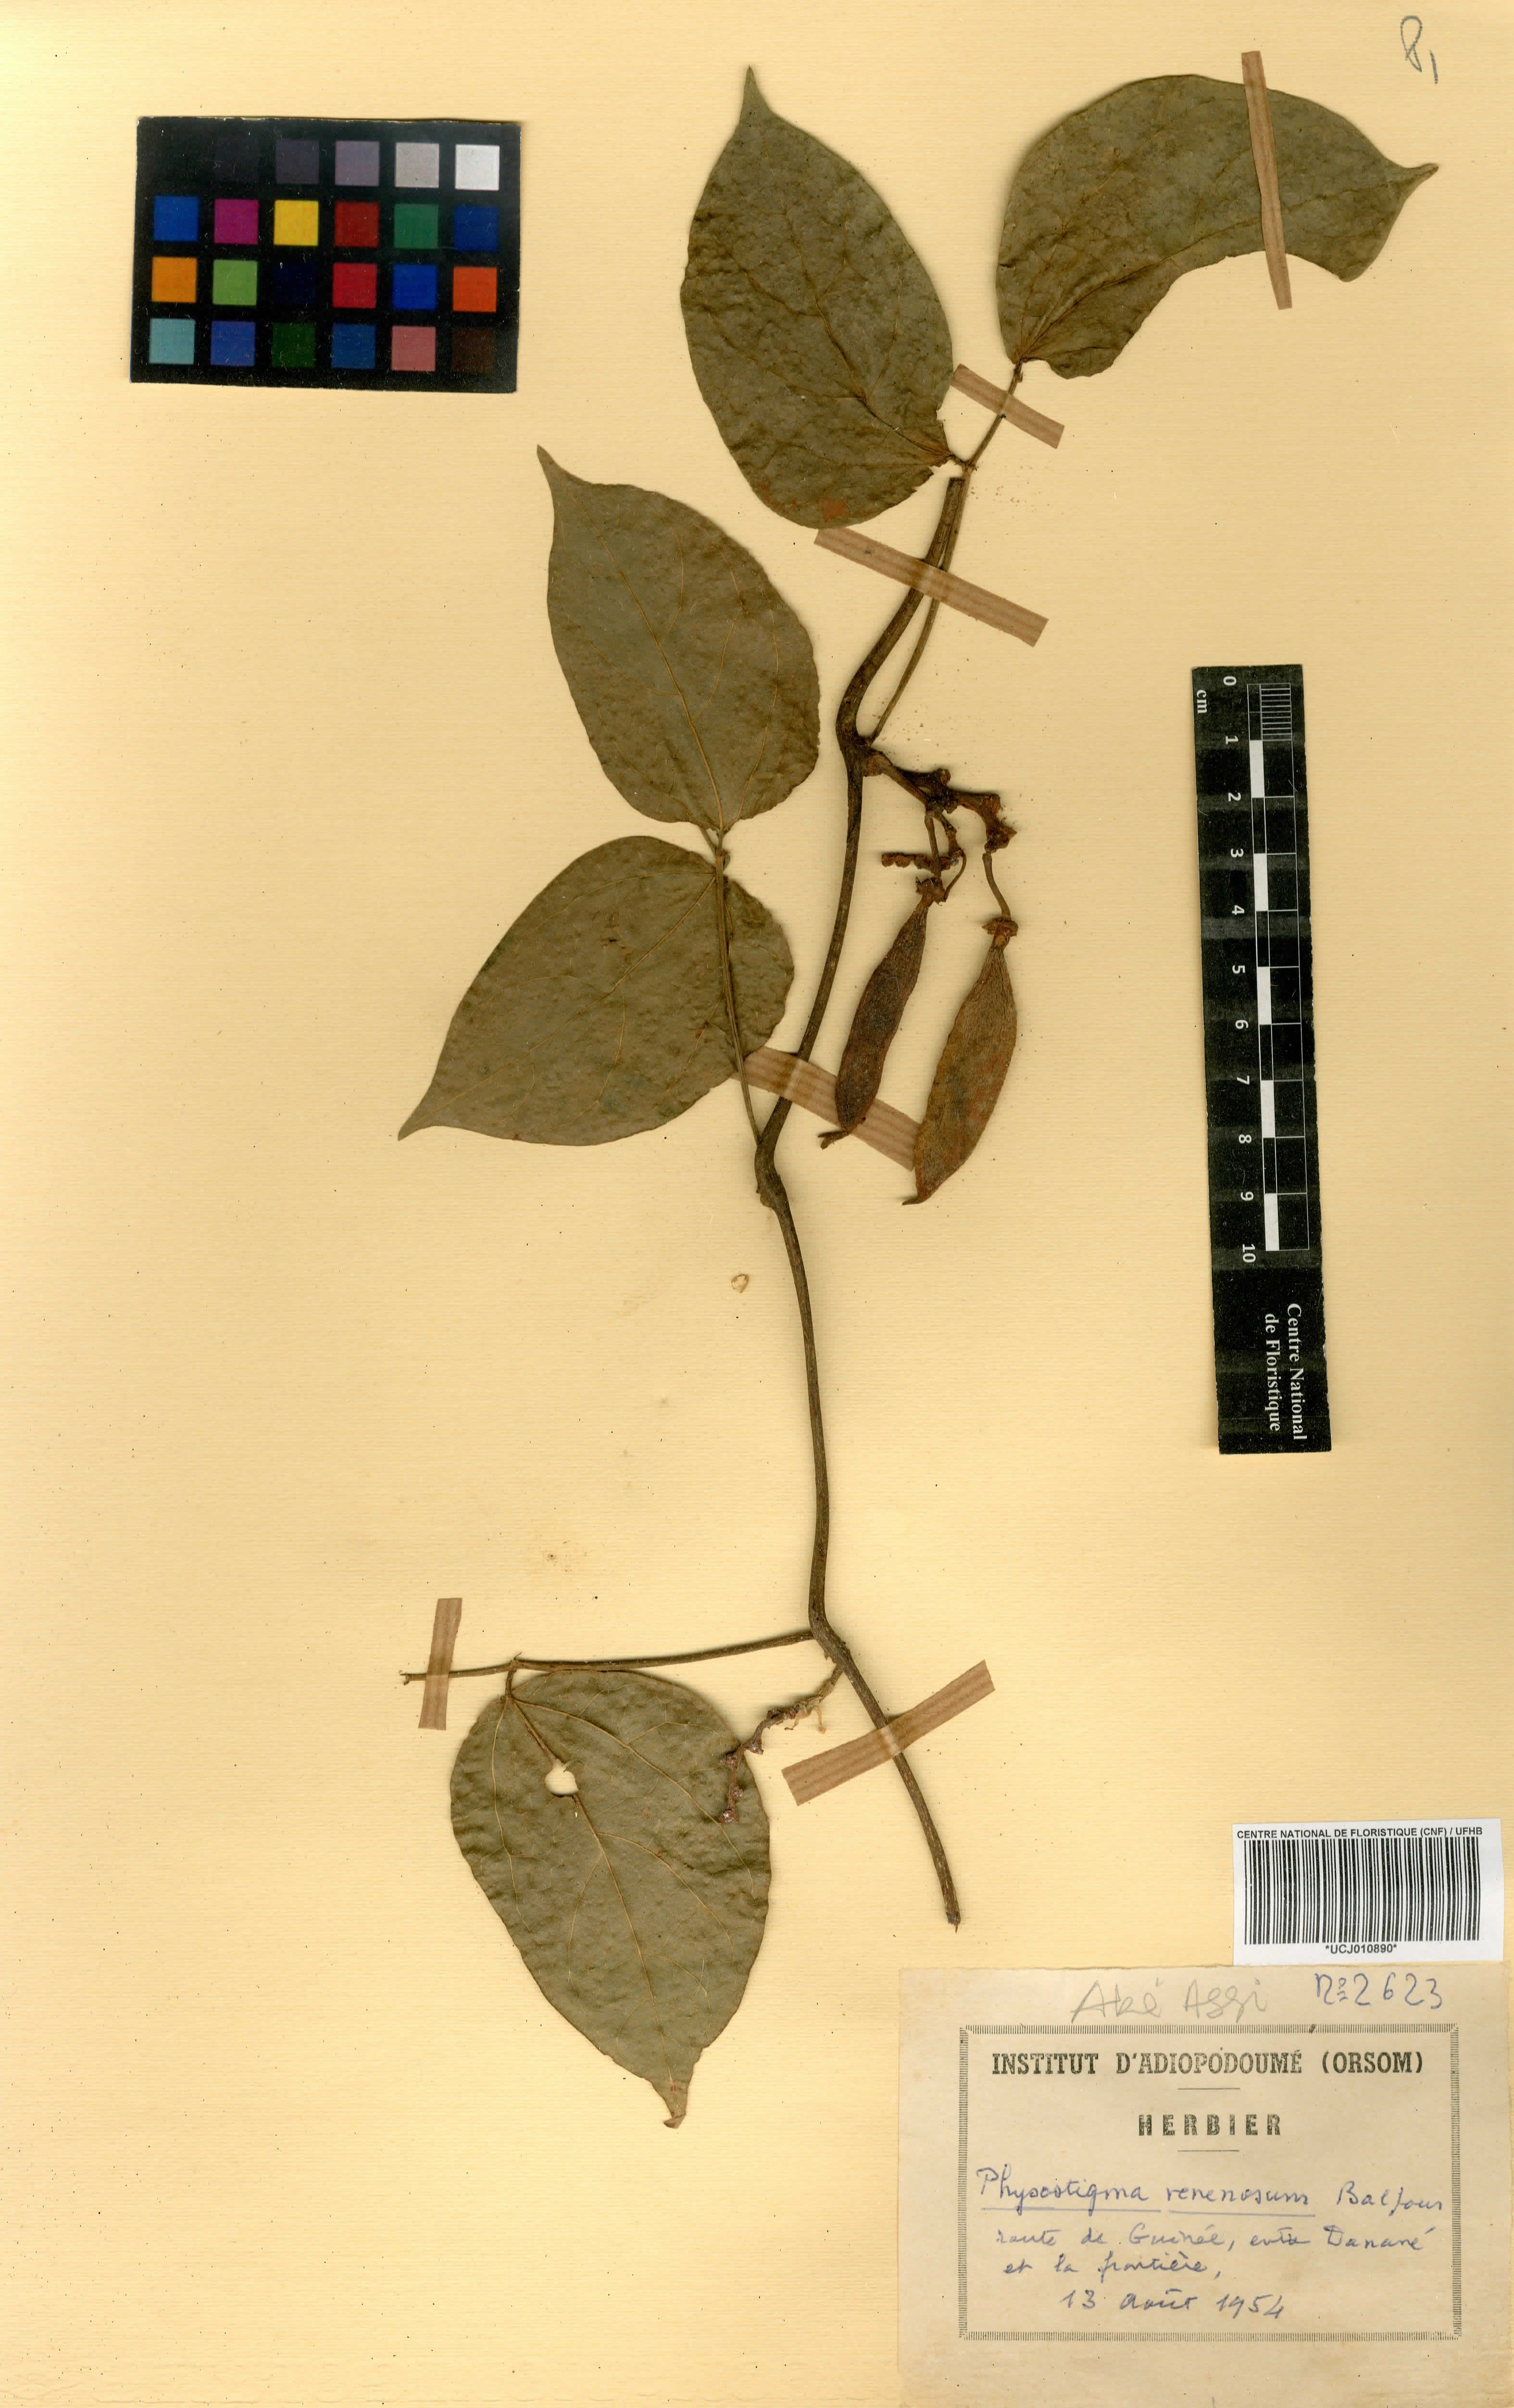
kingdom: Plantae
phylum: Tracheophyta
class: Magnoliopsida
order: Fabales
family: Fabaceae
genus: Physostigma
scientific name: Physostigma venenosum
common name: Calabar-bean
